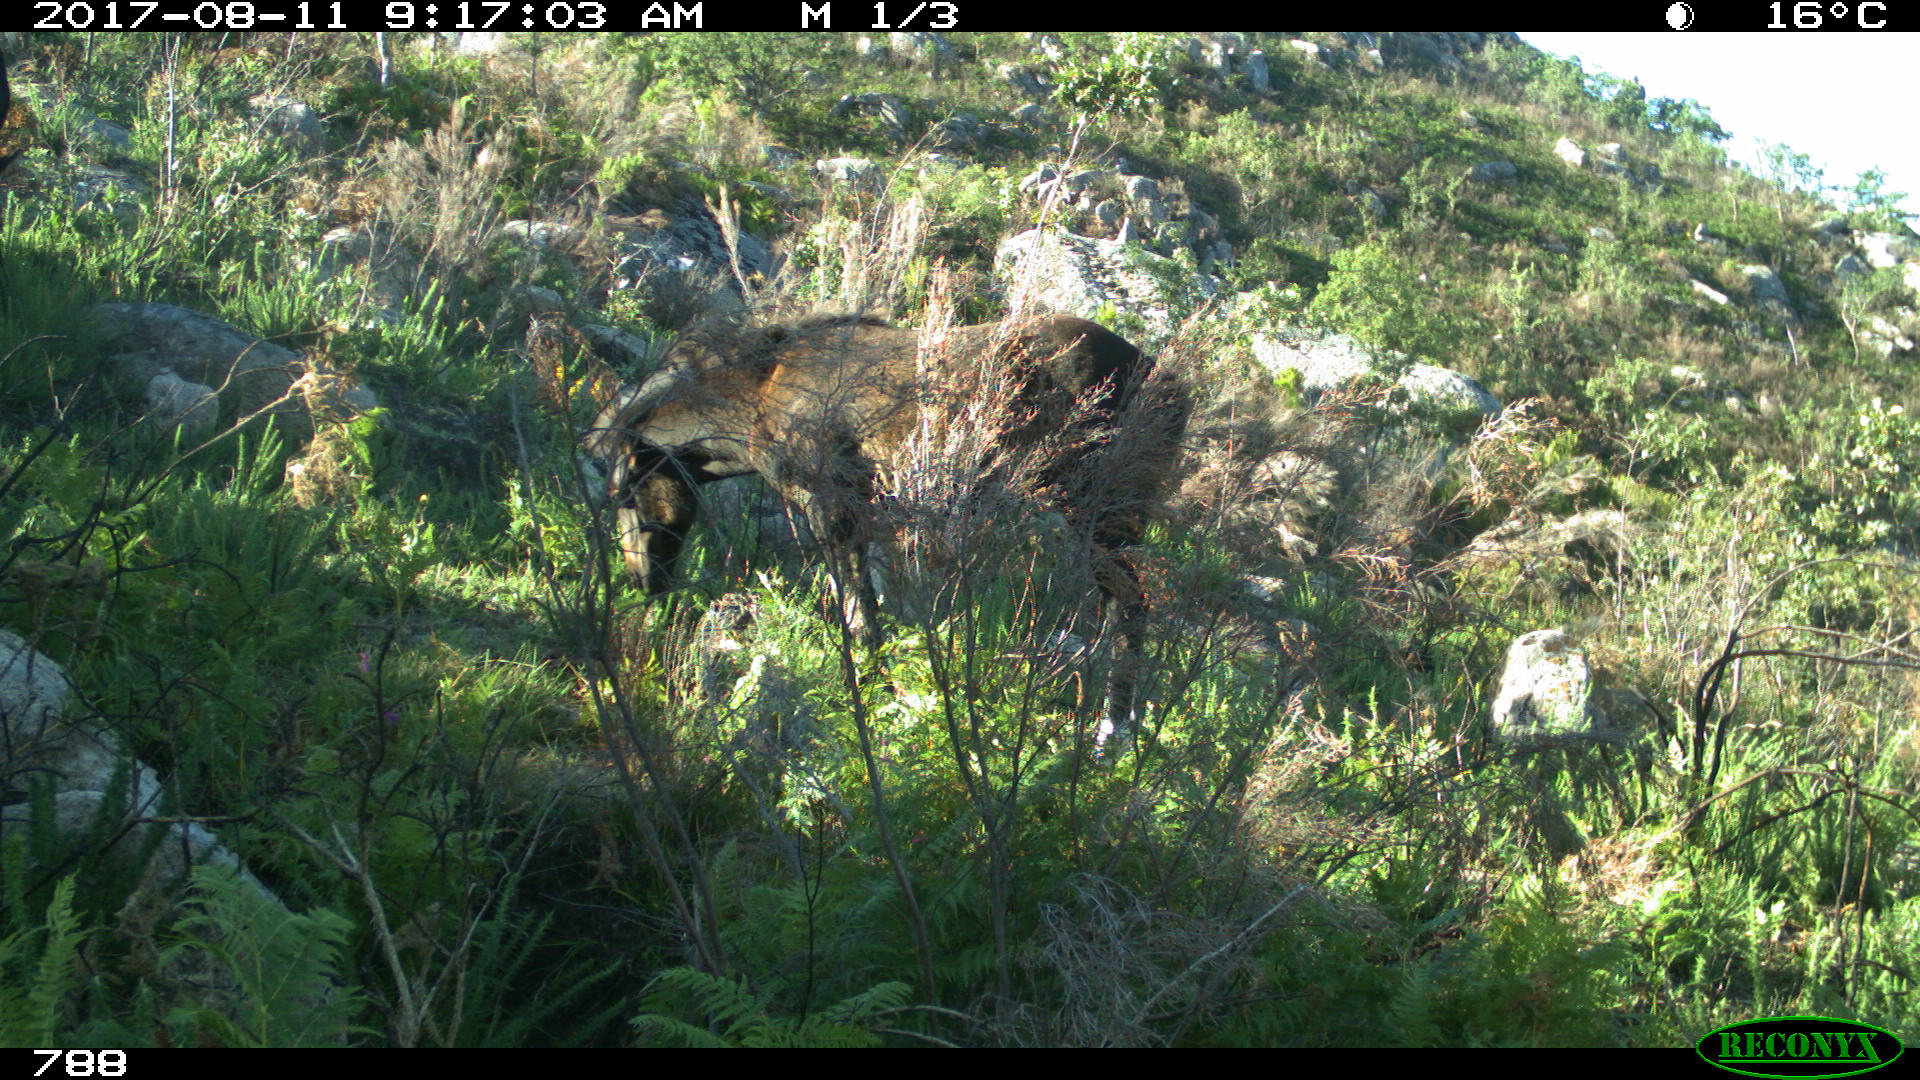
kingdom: Animalia
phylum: Chordata
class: Mammalia
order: Perissodactyla
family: Equidae
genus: Equus
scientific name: Equus caballus
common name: Horse
